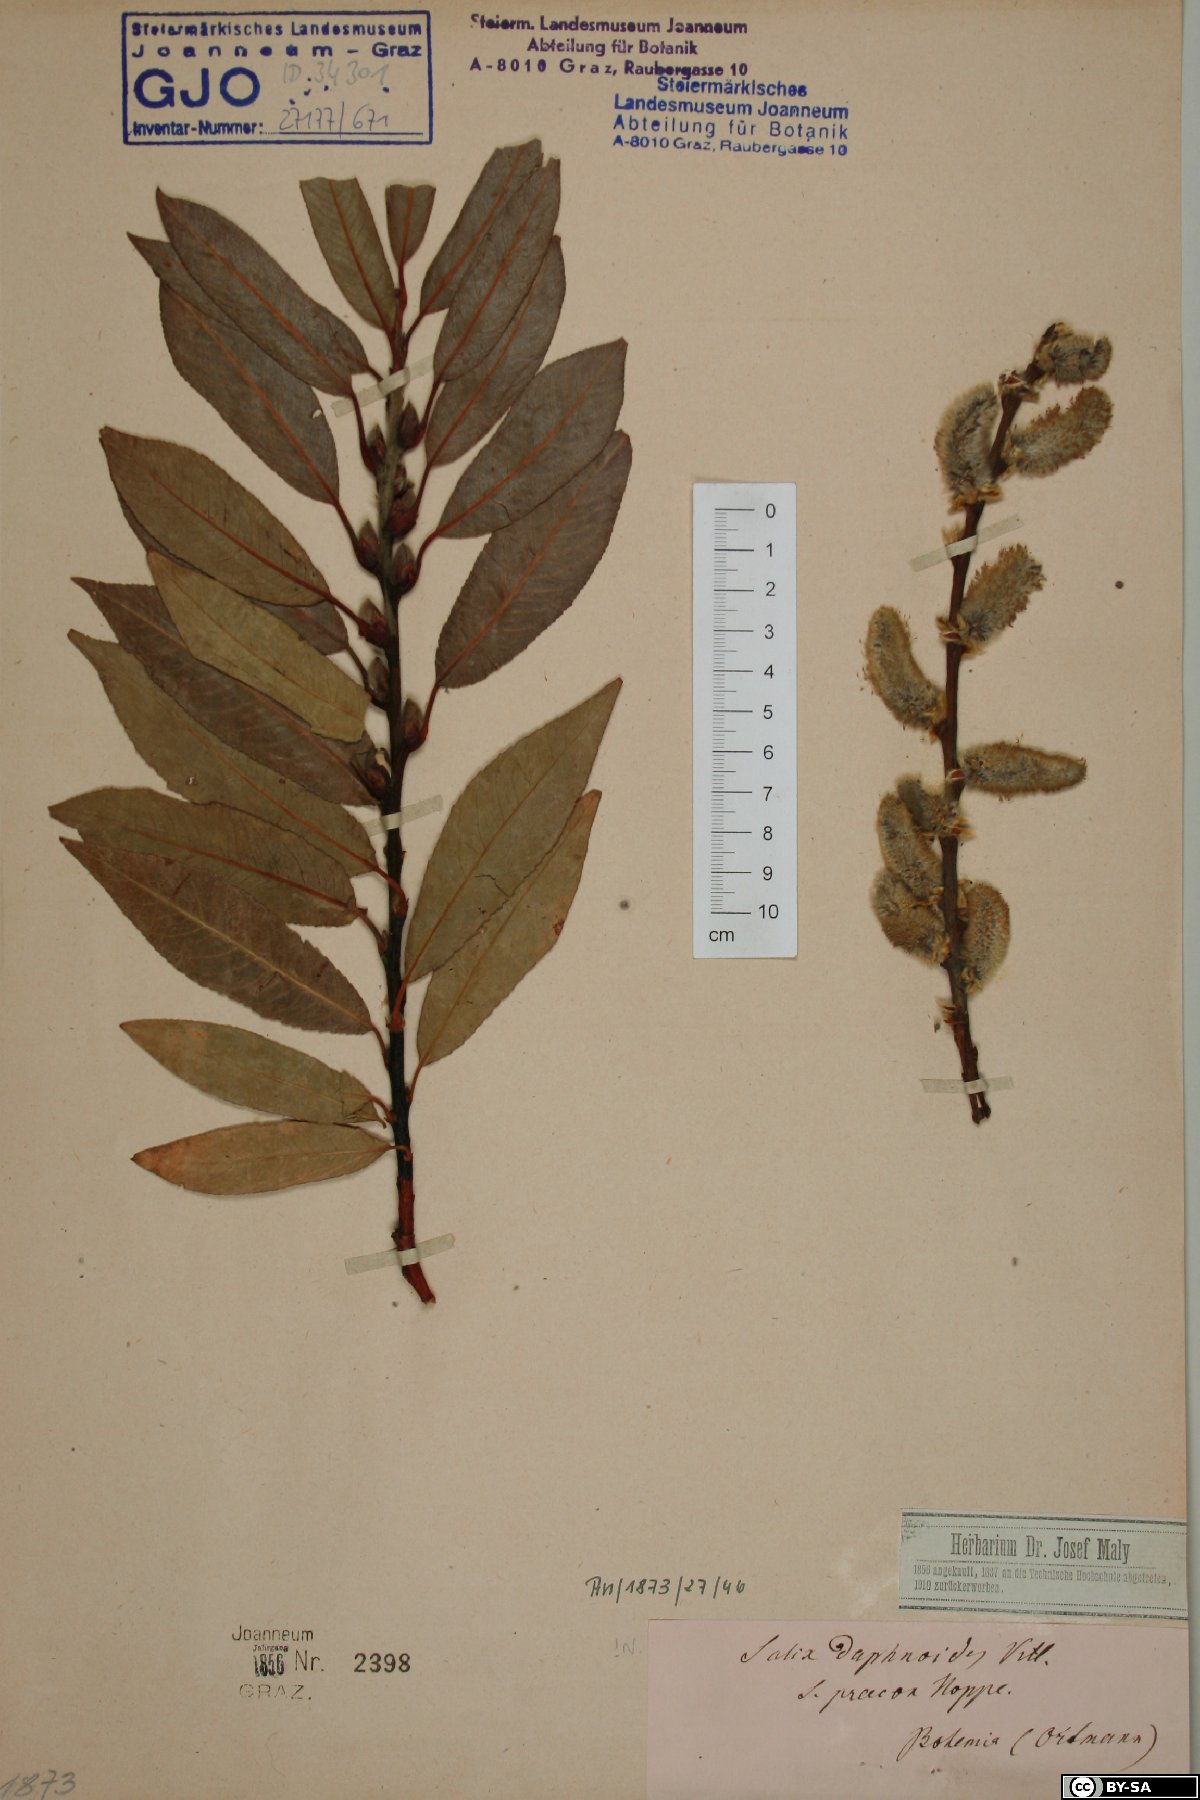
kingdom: Plantae
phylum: Tracheophyta
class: Magnoliopsida
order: Malpighiales
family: Salicaceae
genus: Salix
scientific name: Salix daphnoides
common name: European violet-willow
